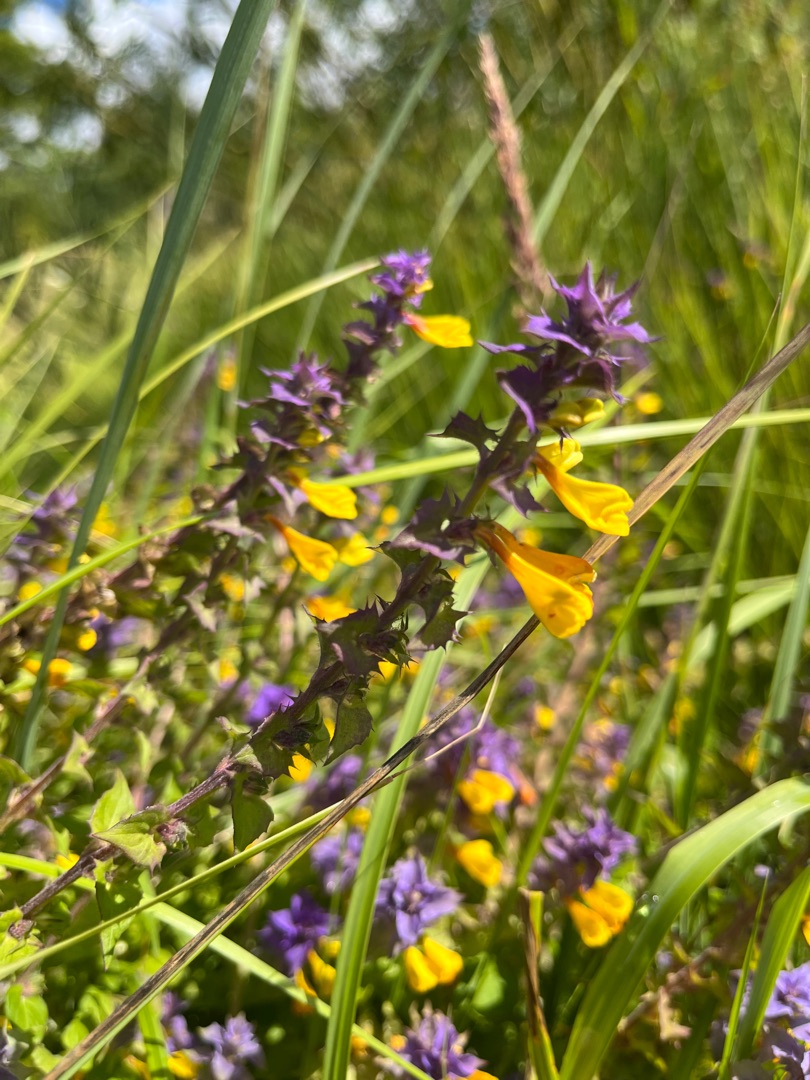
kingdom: Plantae
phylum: Tracheophyta
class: Magnoliopsida
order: Lamiales
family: Orobanchaceae
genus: Melampyrum
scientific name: Melampyrum nemorosum
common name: Blåtoppet kohvede
